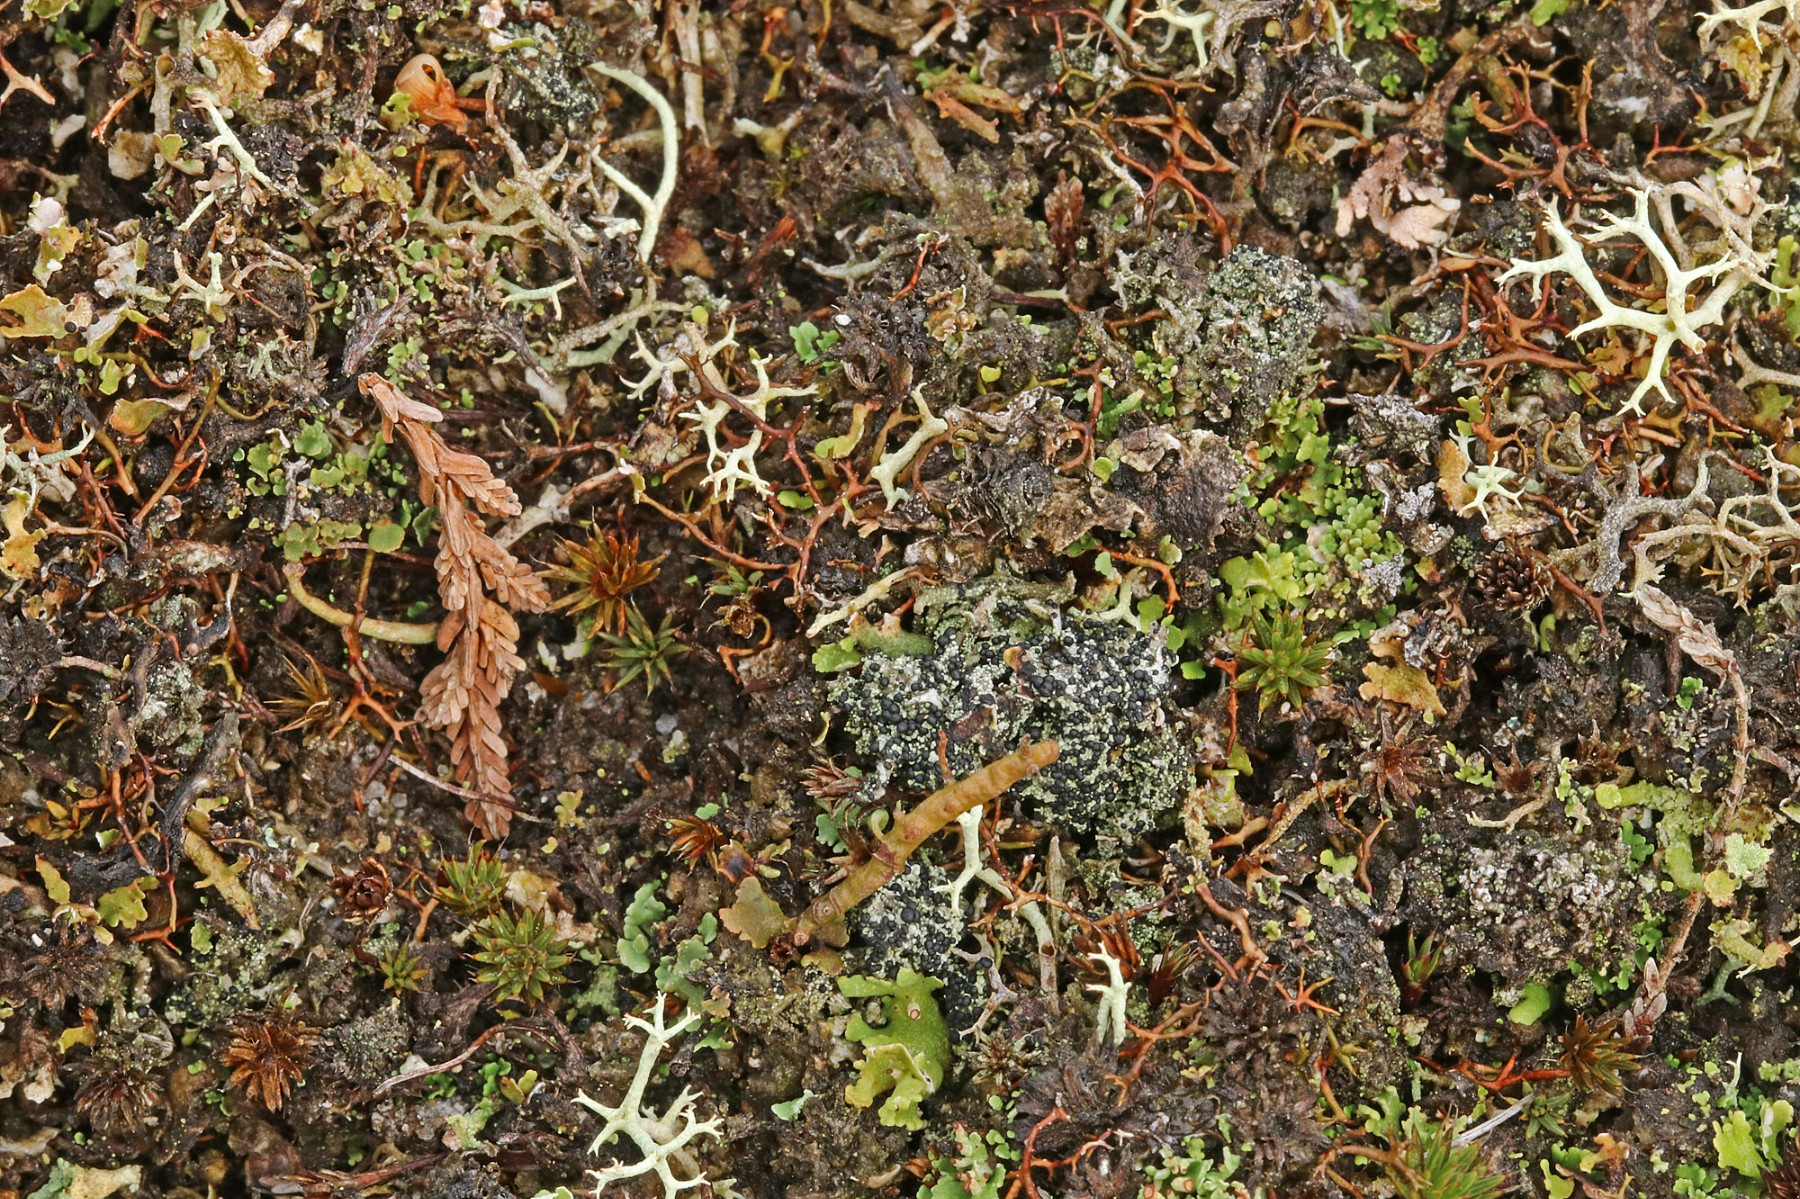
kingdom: Fungi
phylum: Ascomycota
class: Lecanoromycetes
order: Lecanorales
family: Byssolomataceae
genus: Micarea
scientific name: Micarea lignaria
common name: tørve-knaplav
